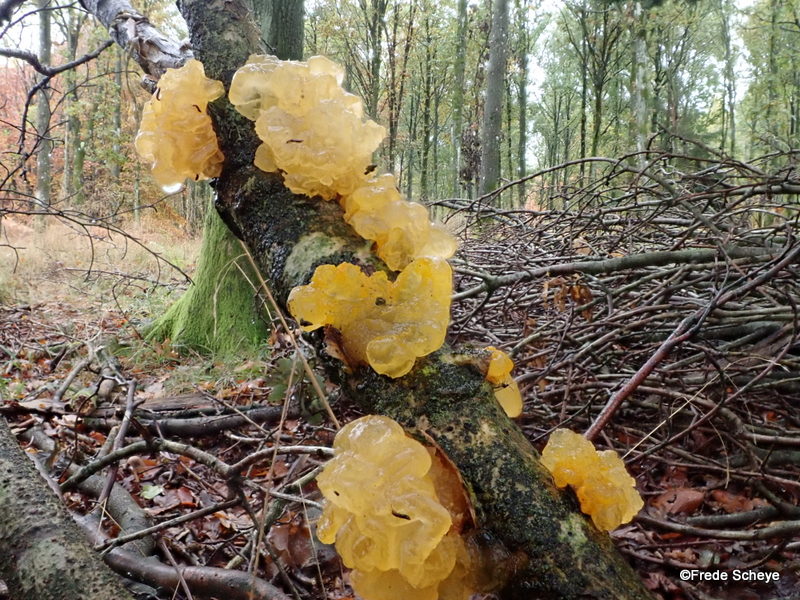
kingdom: Fungi
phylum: Basidiomycota
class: Tremellomycetes
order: Tremellales
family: Tremellaceae
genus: Tremella
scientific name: Tremella mesenterica
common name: gul bævresvamp
